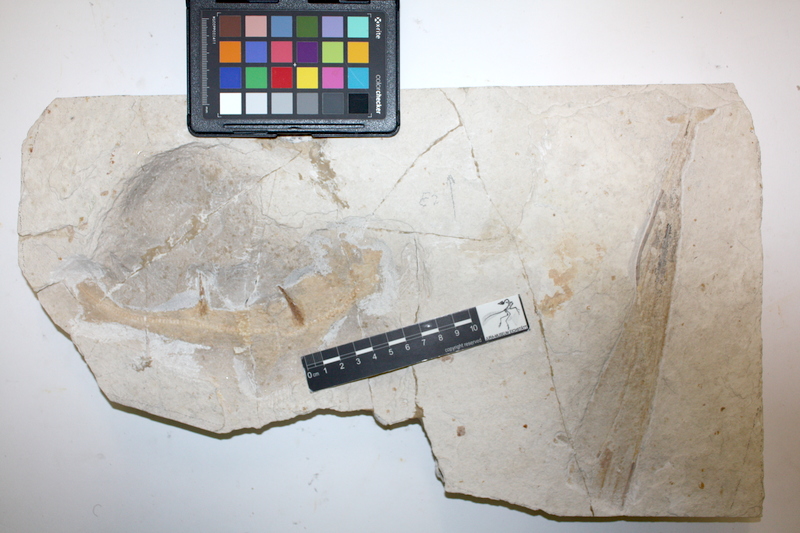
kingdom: Animalia
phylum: Chordata
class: Elasmobranchii
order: Heterodontiformes
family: Heterodontidae
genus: Paracestracion
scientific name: Paracestracion viohli
